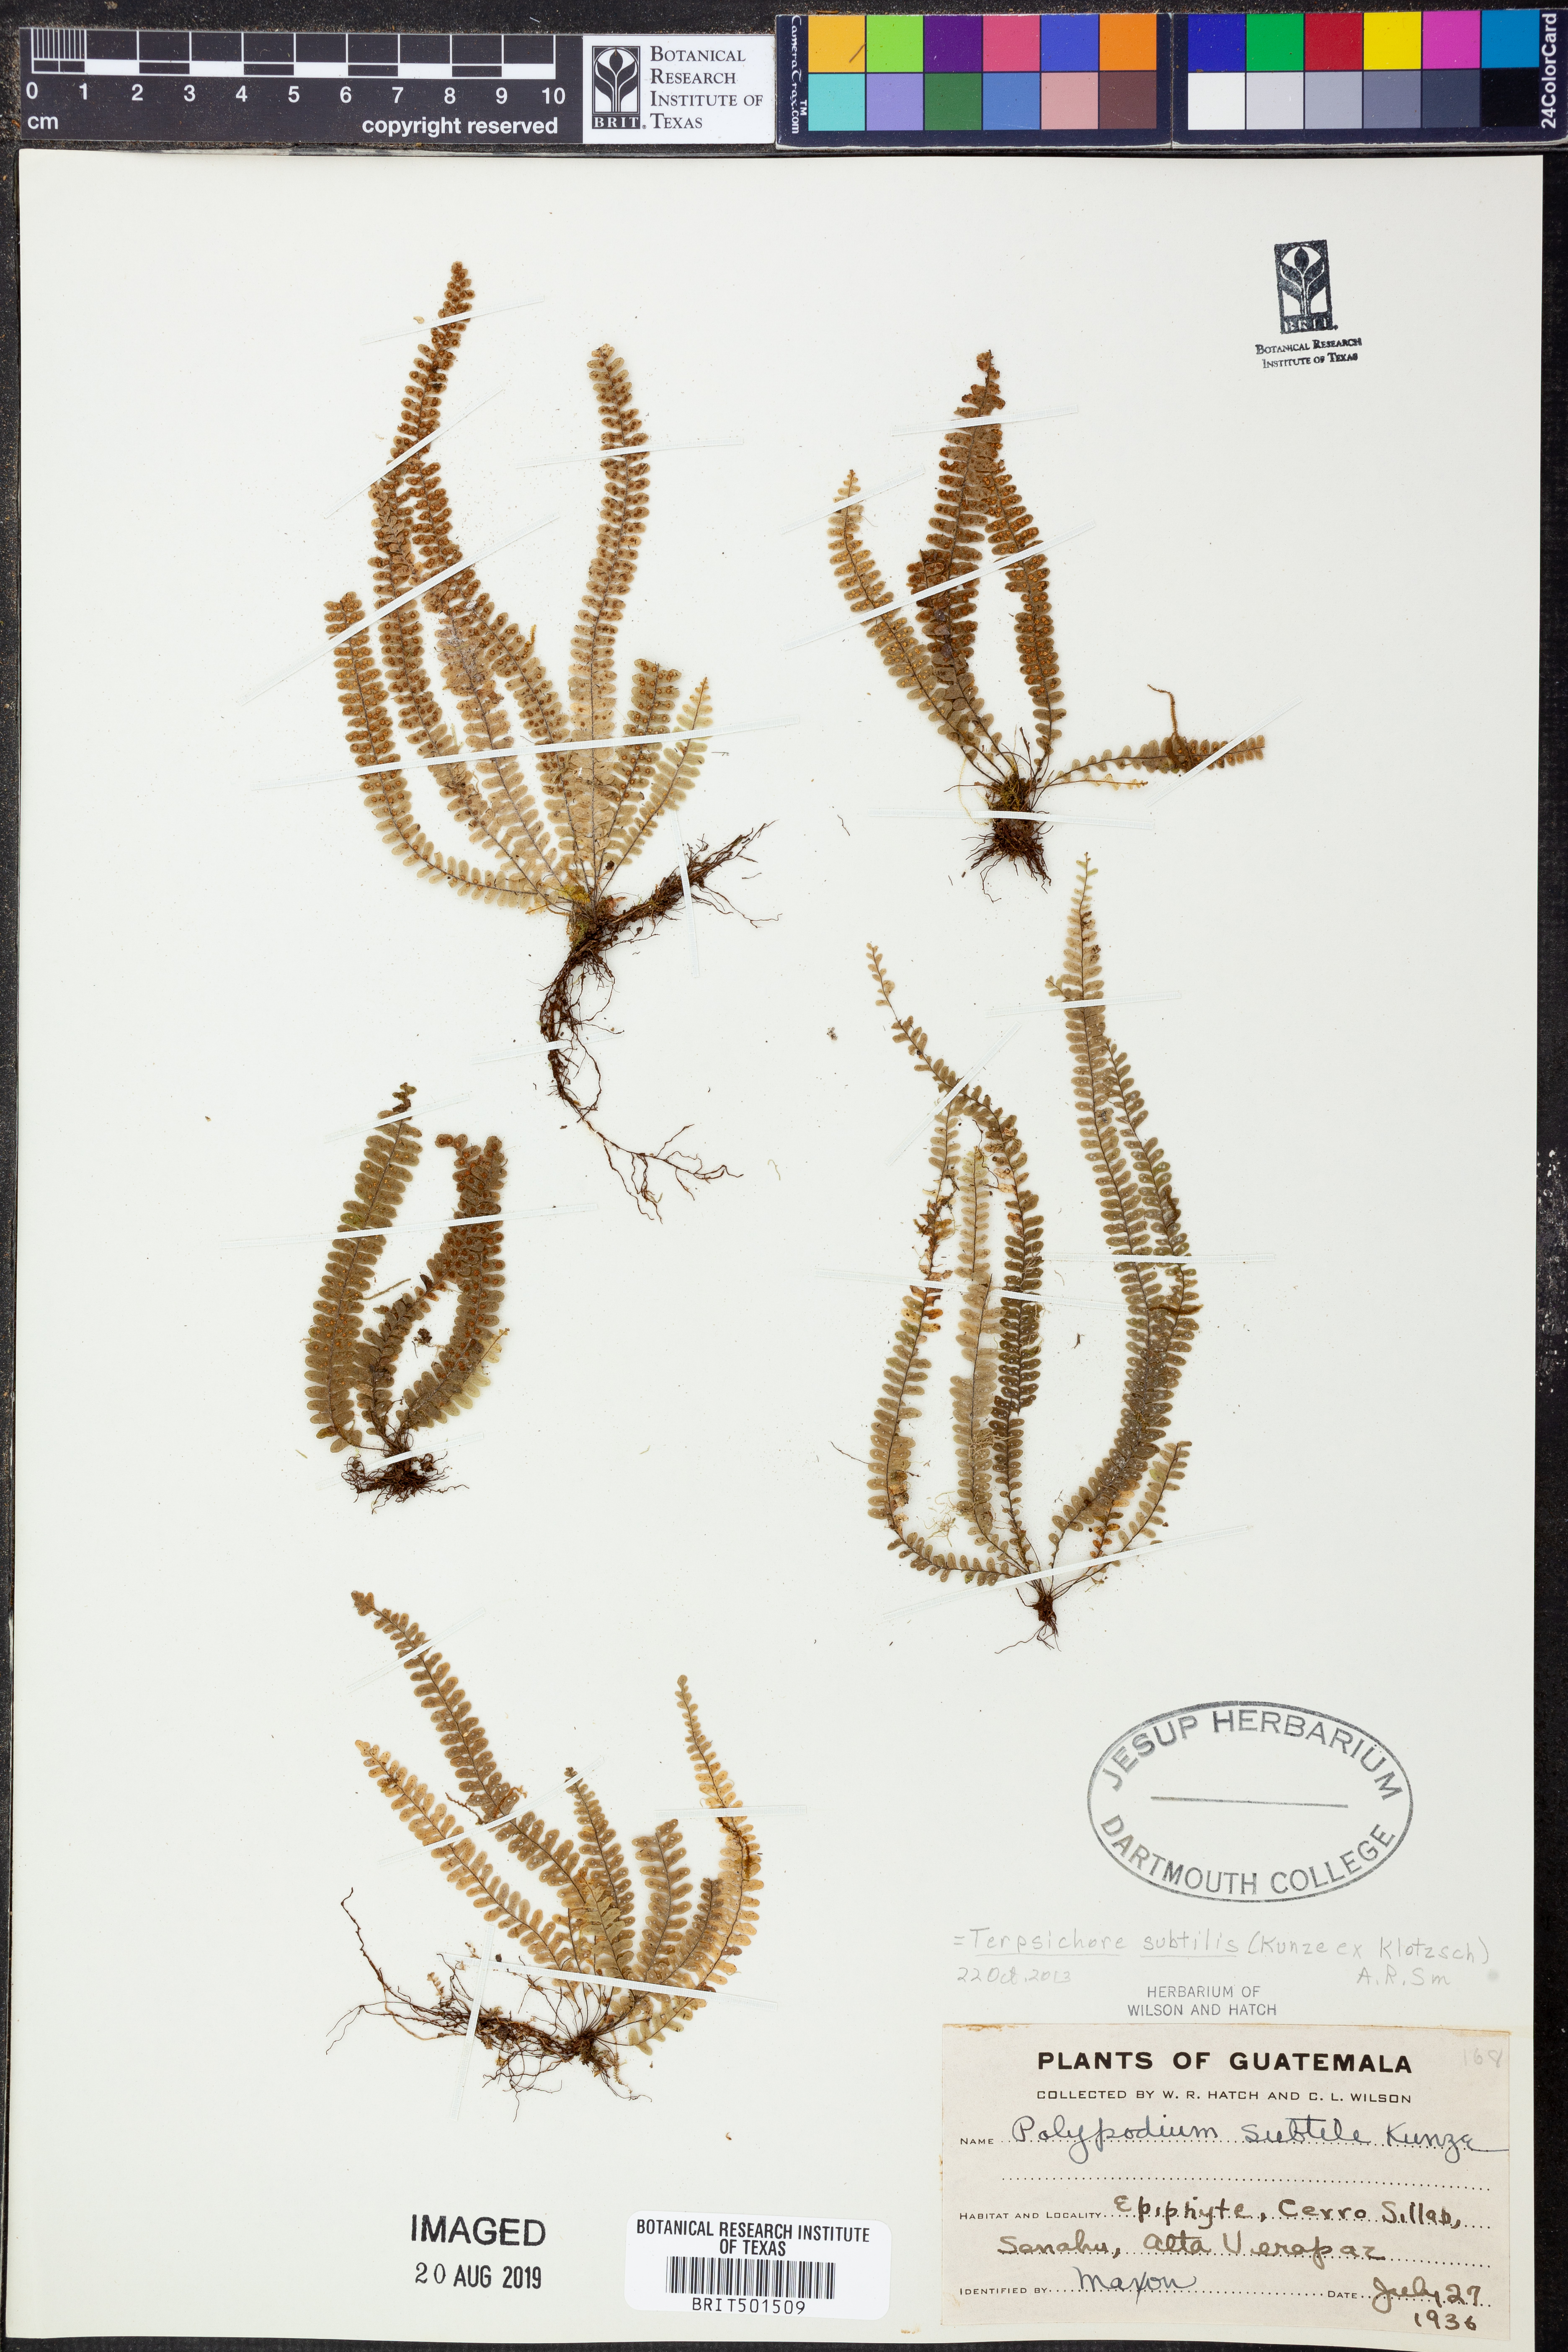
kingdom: Plantae
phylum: Tracheophyta
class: Polypodiopsida
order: Polypodiales
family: Polypodiaceae
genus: Mycopteris
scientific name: Mycopteris subtilis
